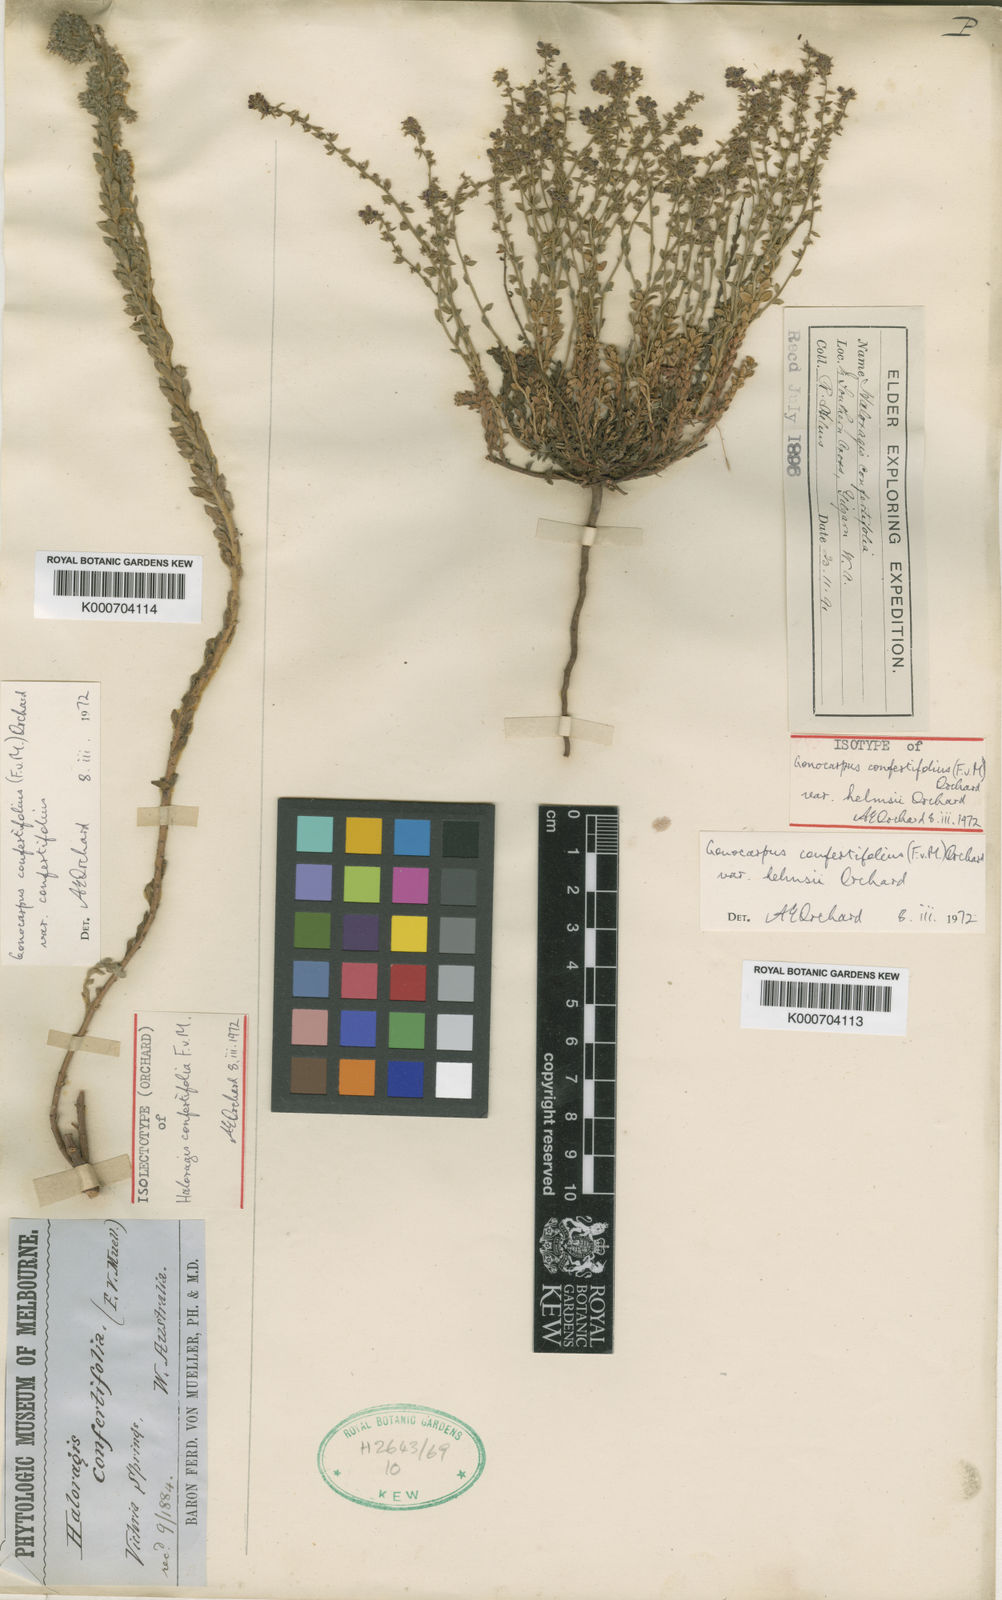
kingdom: Plantae
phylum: Tracheophyta
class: Magnoliopsida
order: Saxifragales
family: Haloragaceae
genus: Gonocarpus
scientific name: Gonocarpus confertifolius
